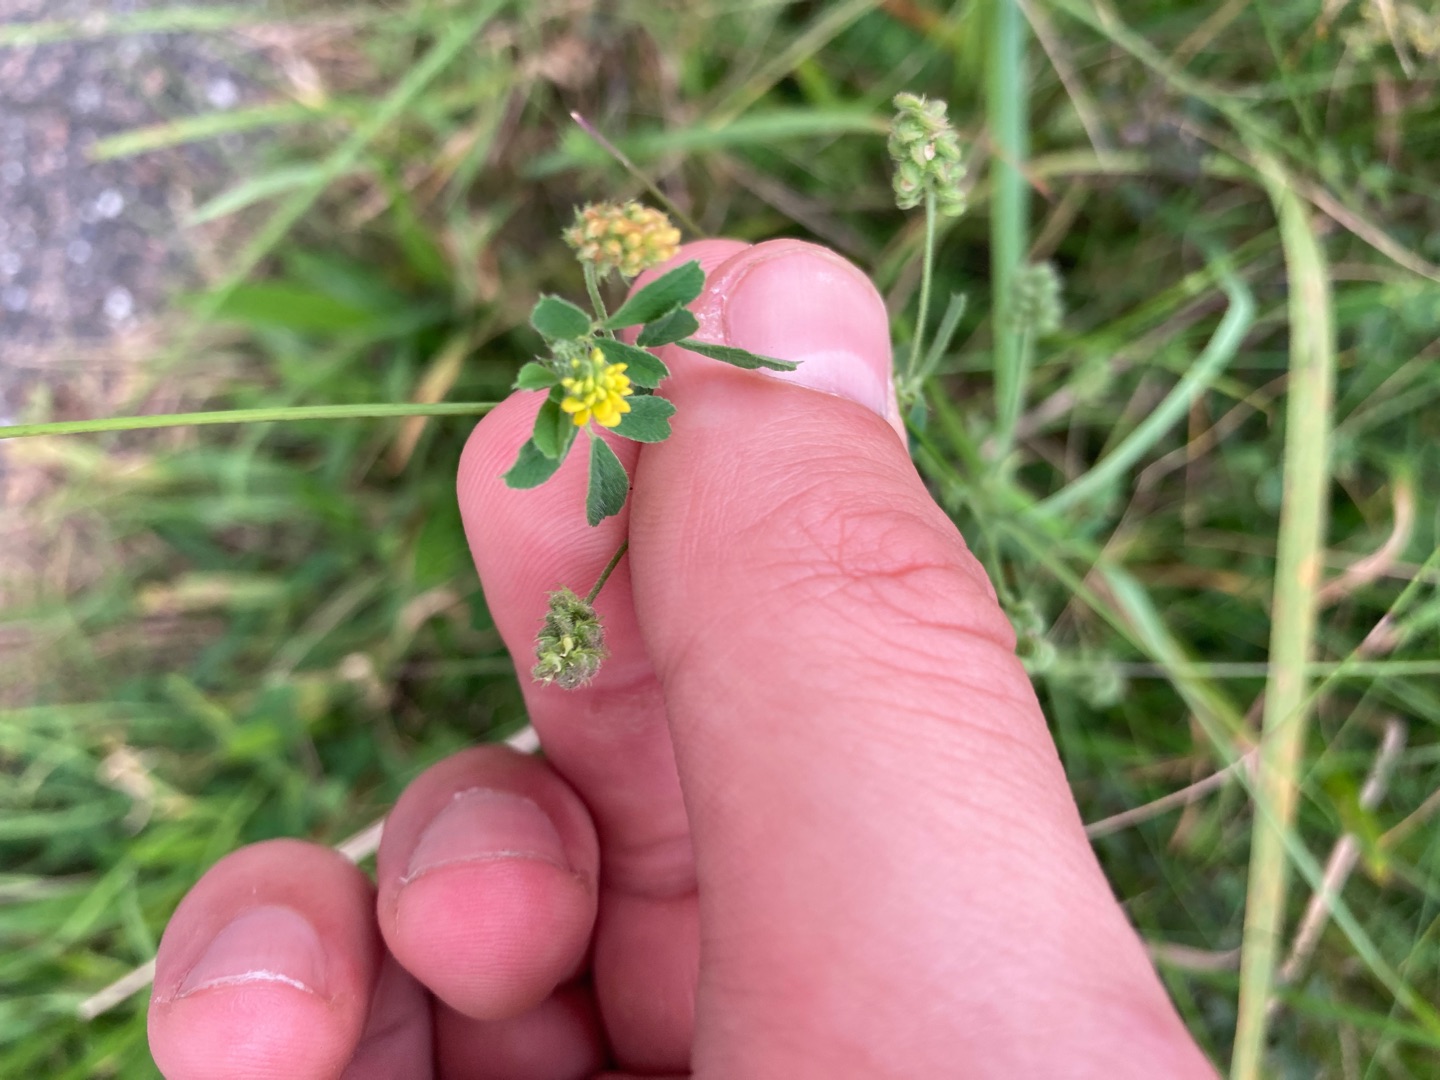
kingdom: Plantae
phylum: Tracheophyta
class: Magnoliopsida
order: Fabales
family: Fabaceae
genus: Medicago
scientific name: Medicago lupulina
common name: Humle-sneglebælg
